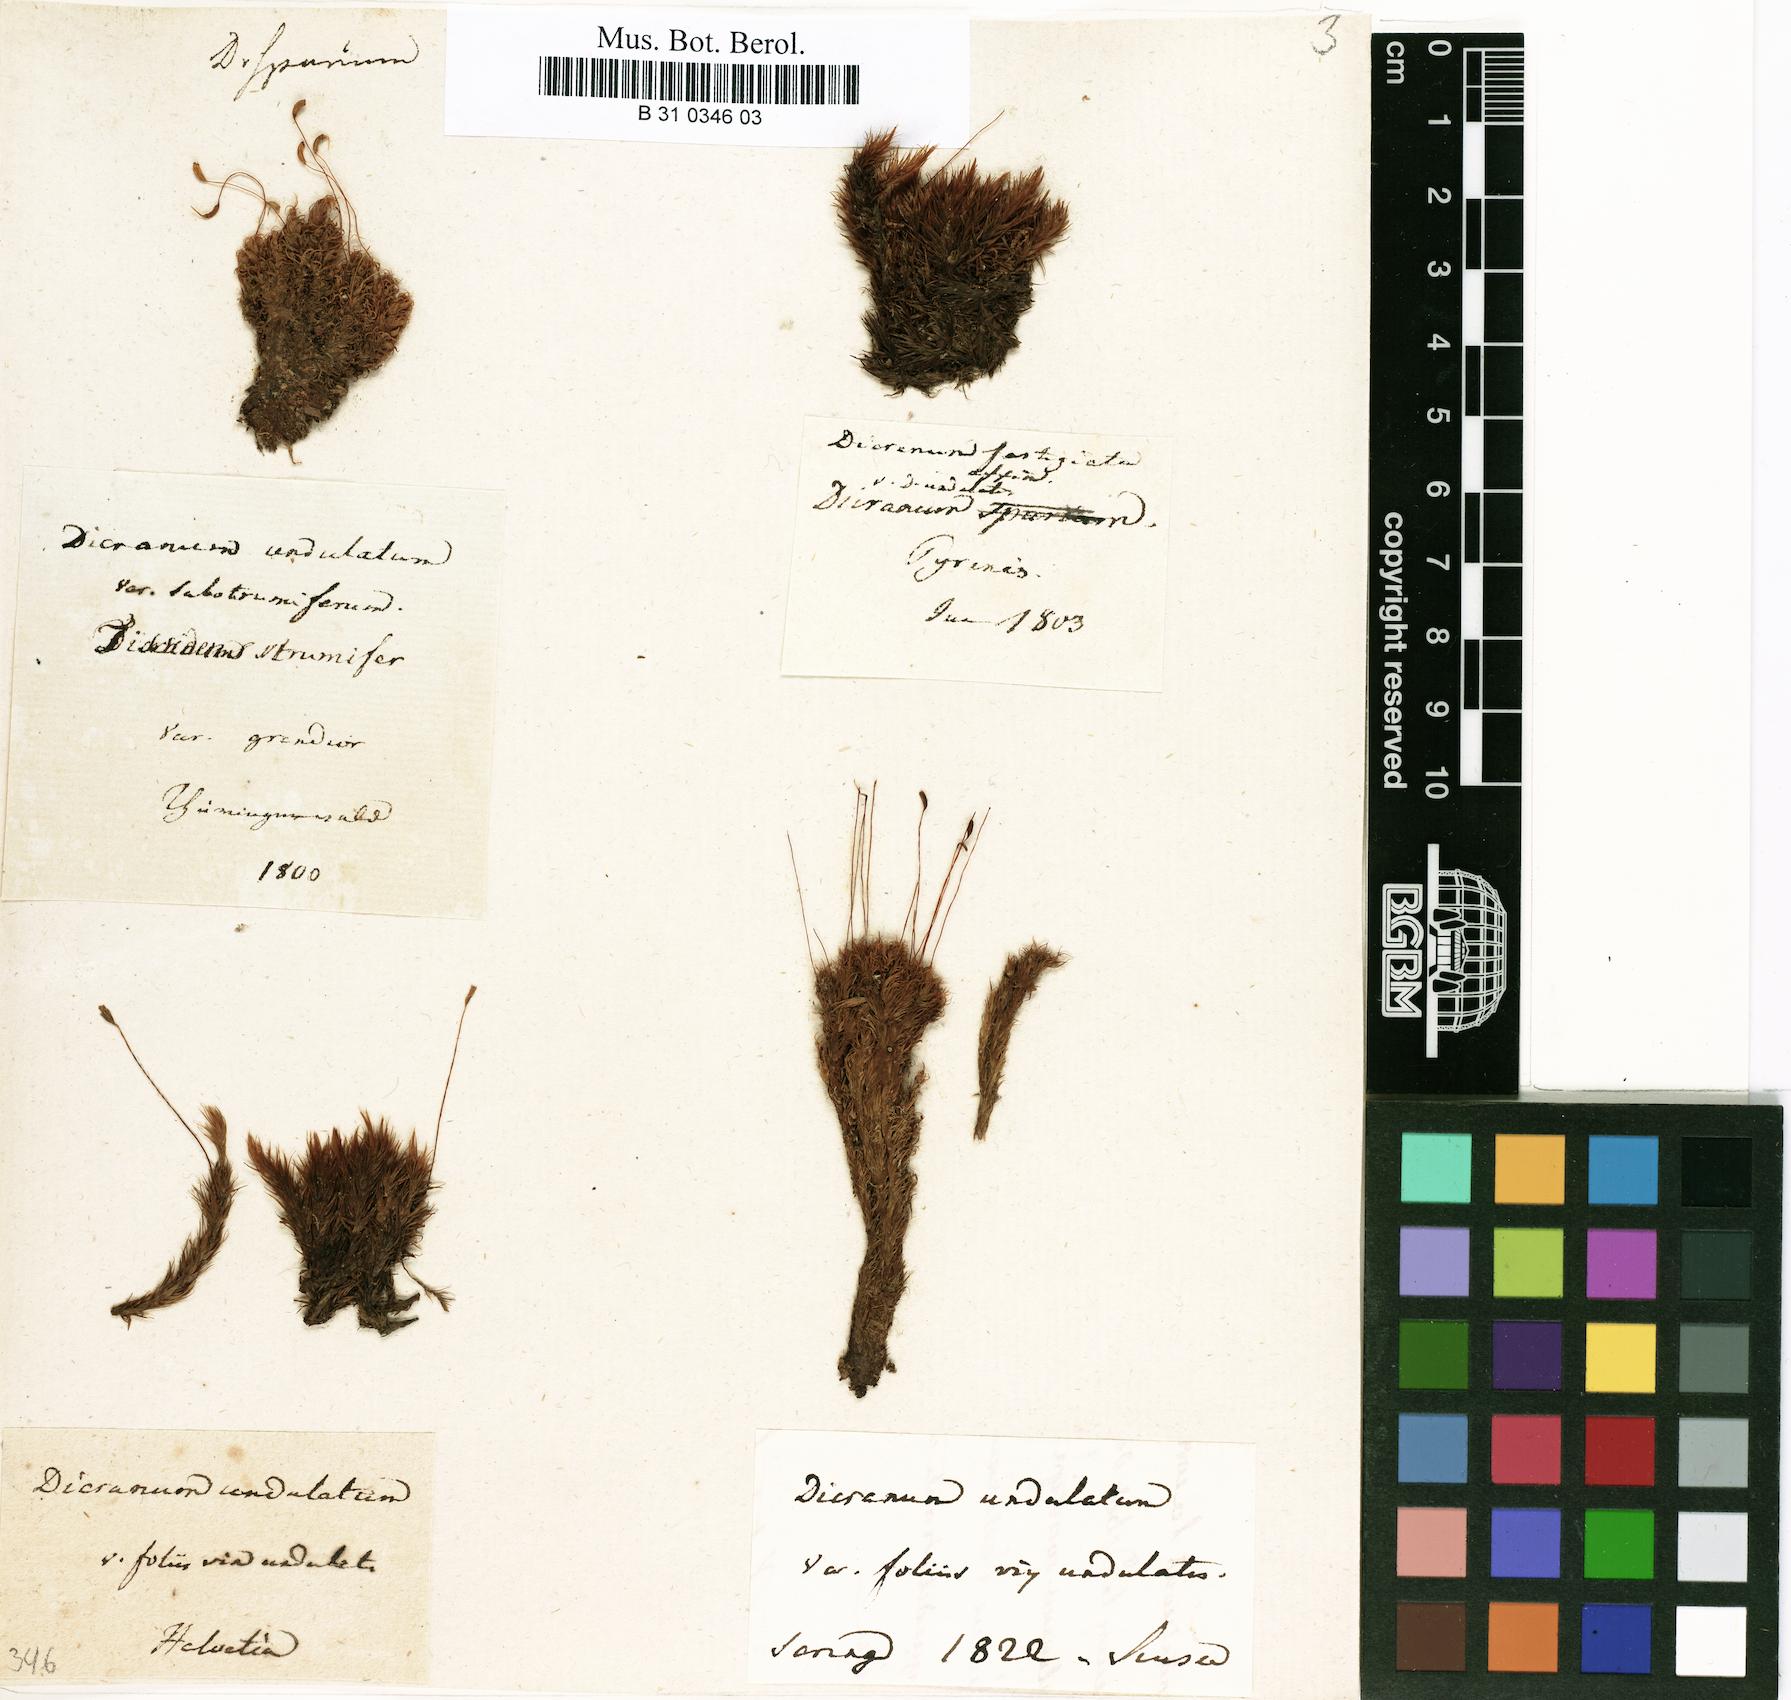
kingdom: Plantae
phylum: Bryophyta
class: Bryopsida
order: Dicranales
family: Dicranaceae
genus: Dicranum
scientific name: Dicranum undulatum
